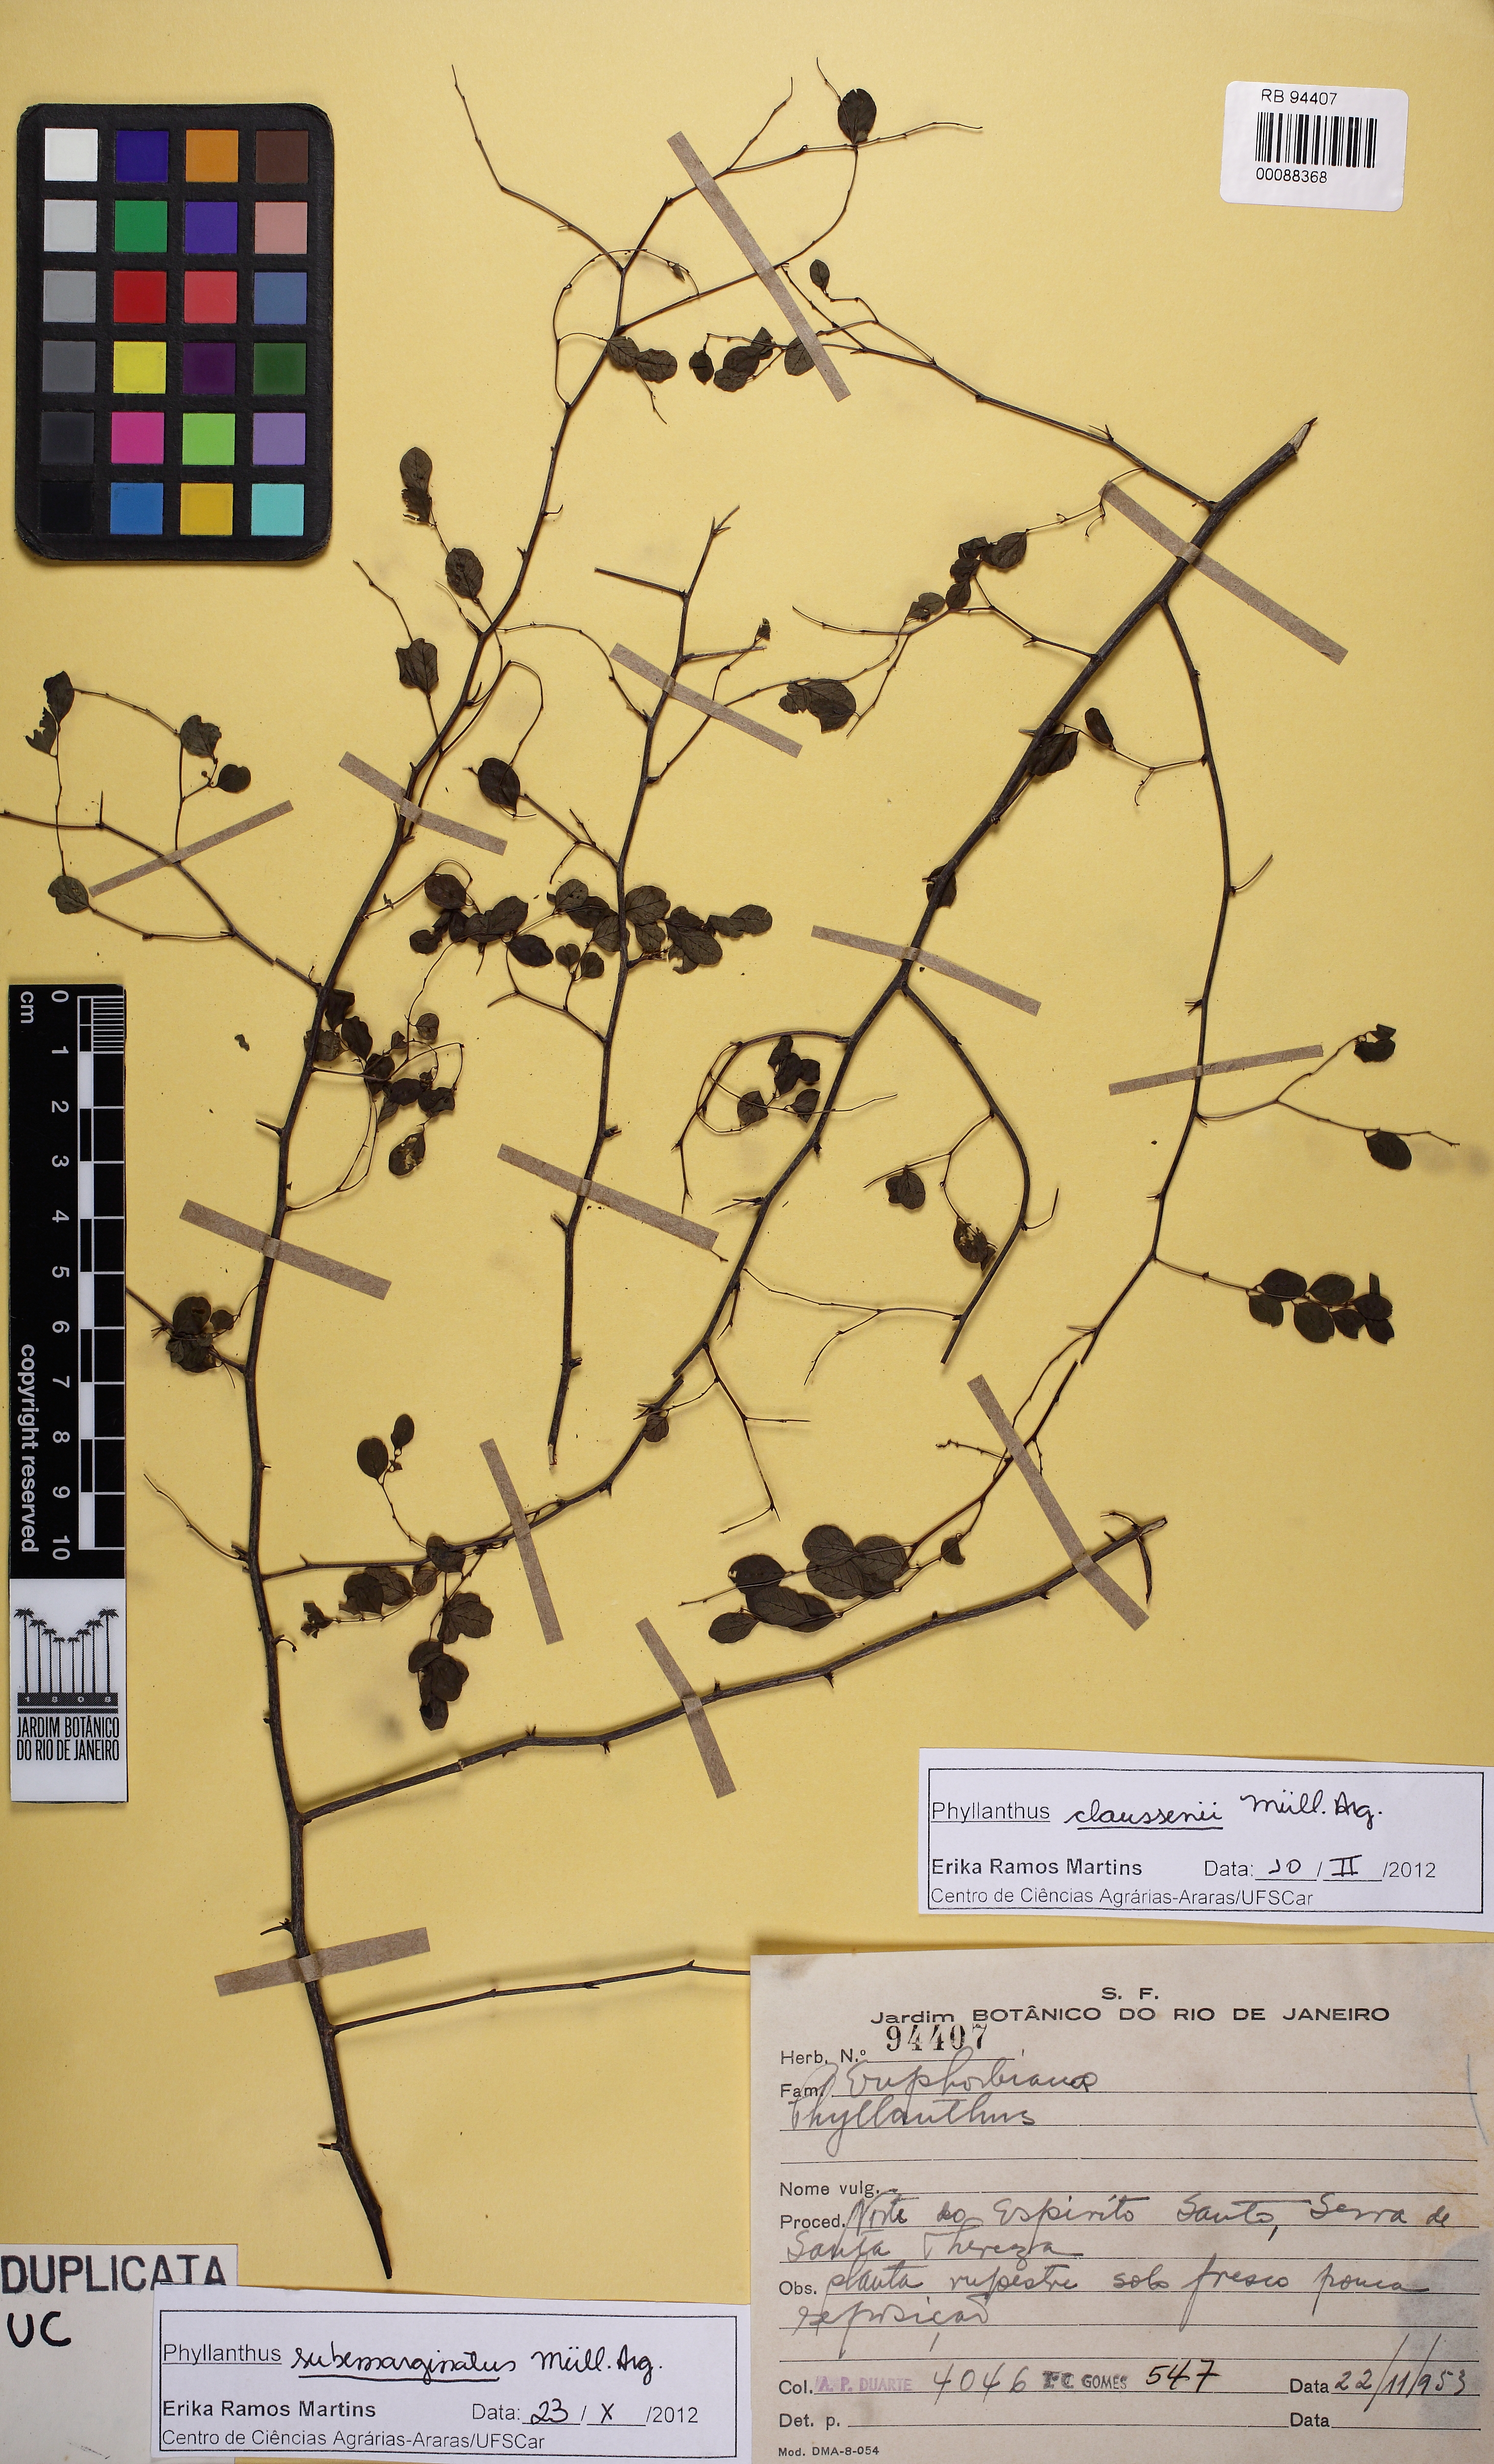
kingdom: Plantae
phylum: Tracheophyta
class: Magnoliopsida
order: Malpighiales
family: Phyllanthaceae
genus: Phyllanthus
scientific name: Phyllanthus subemarginatus
